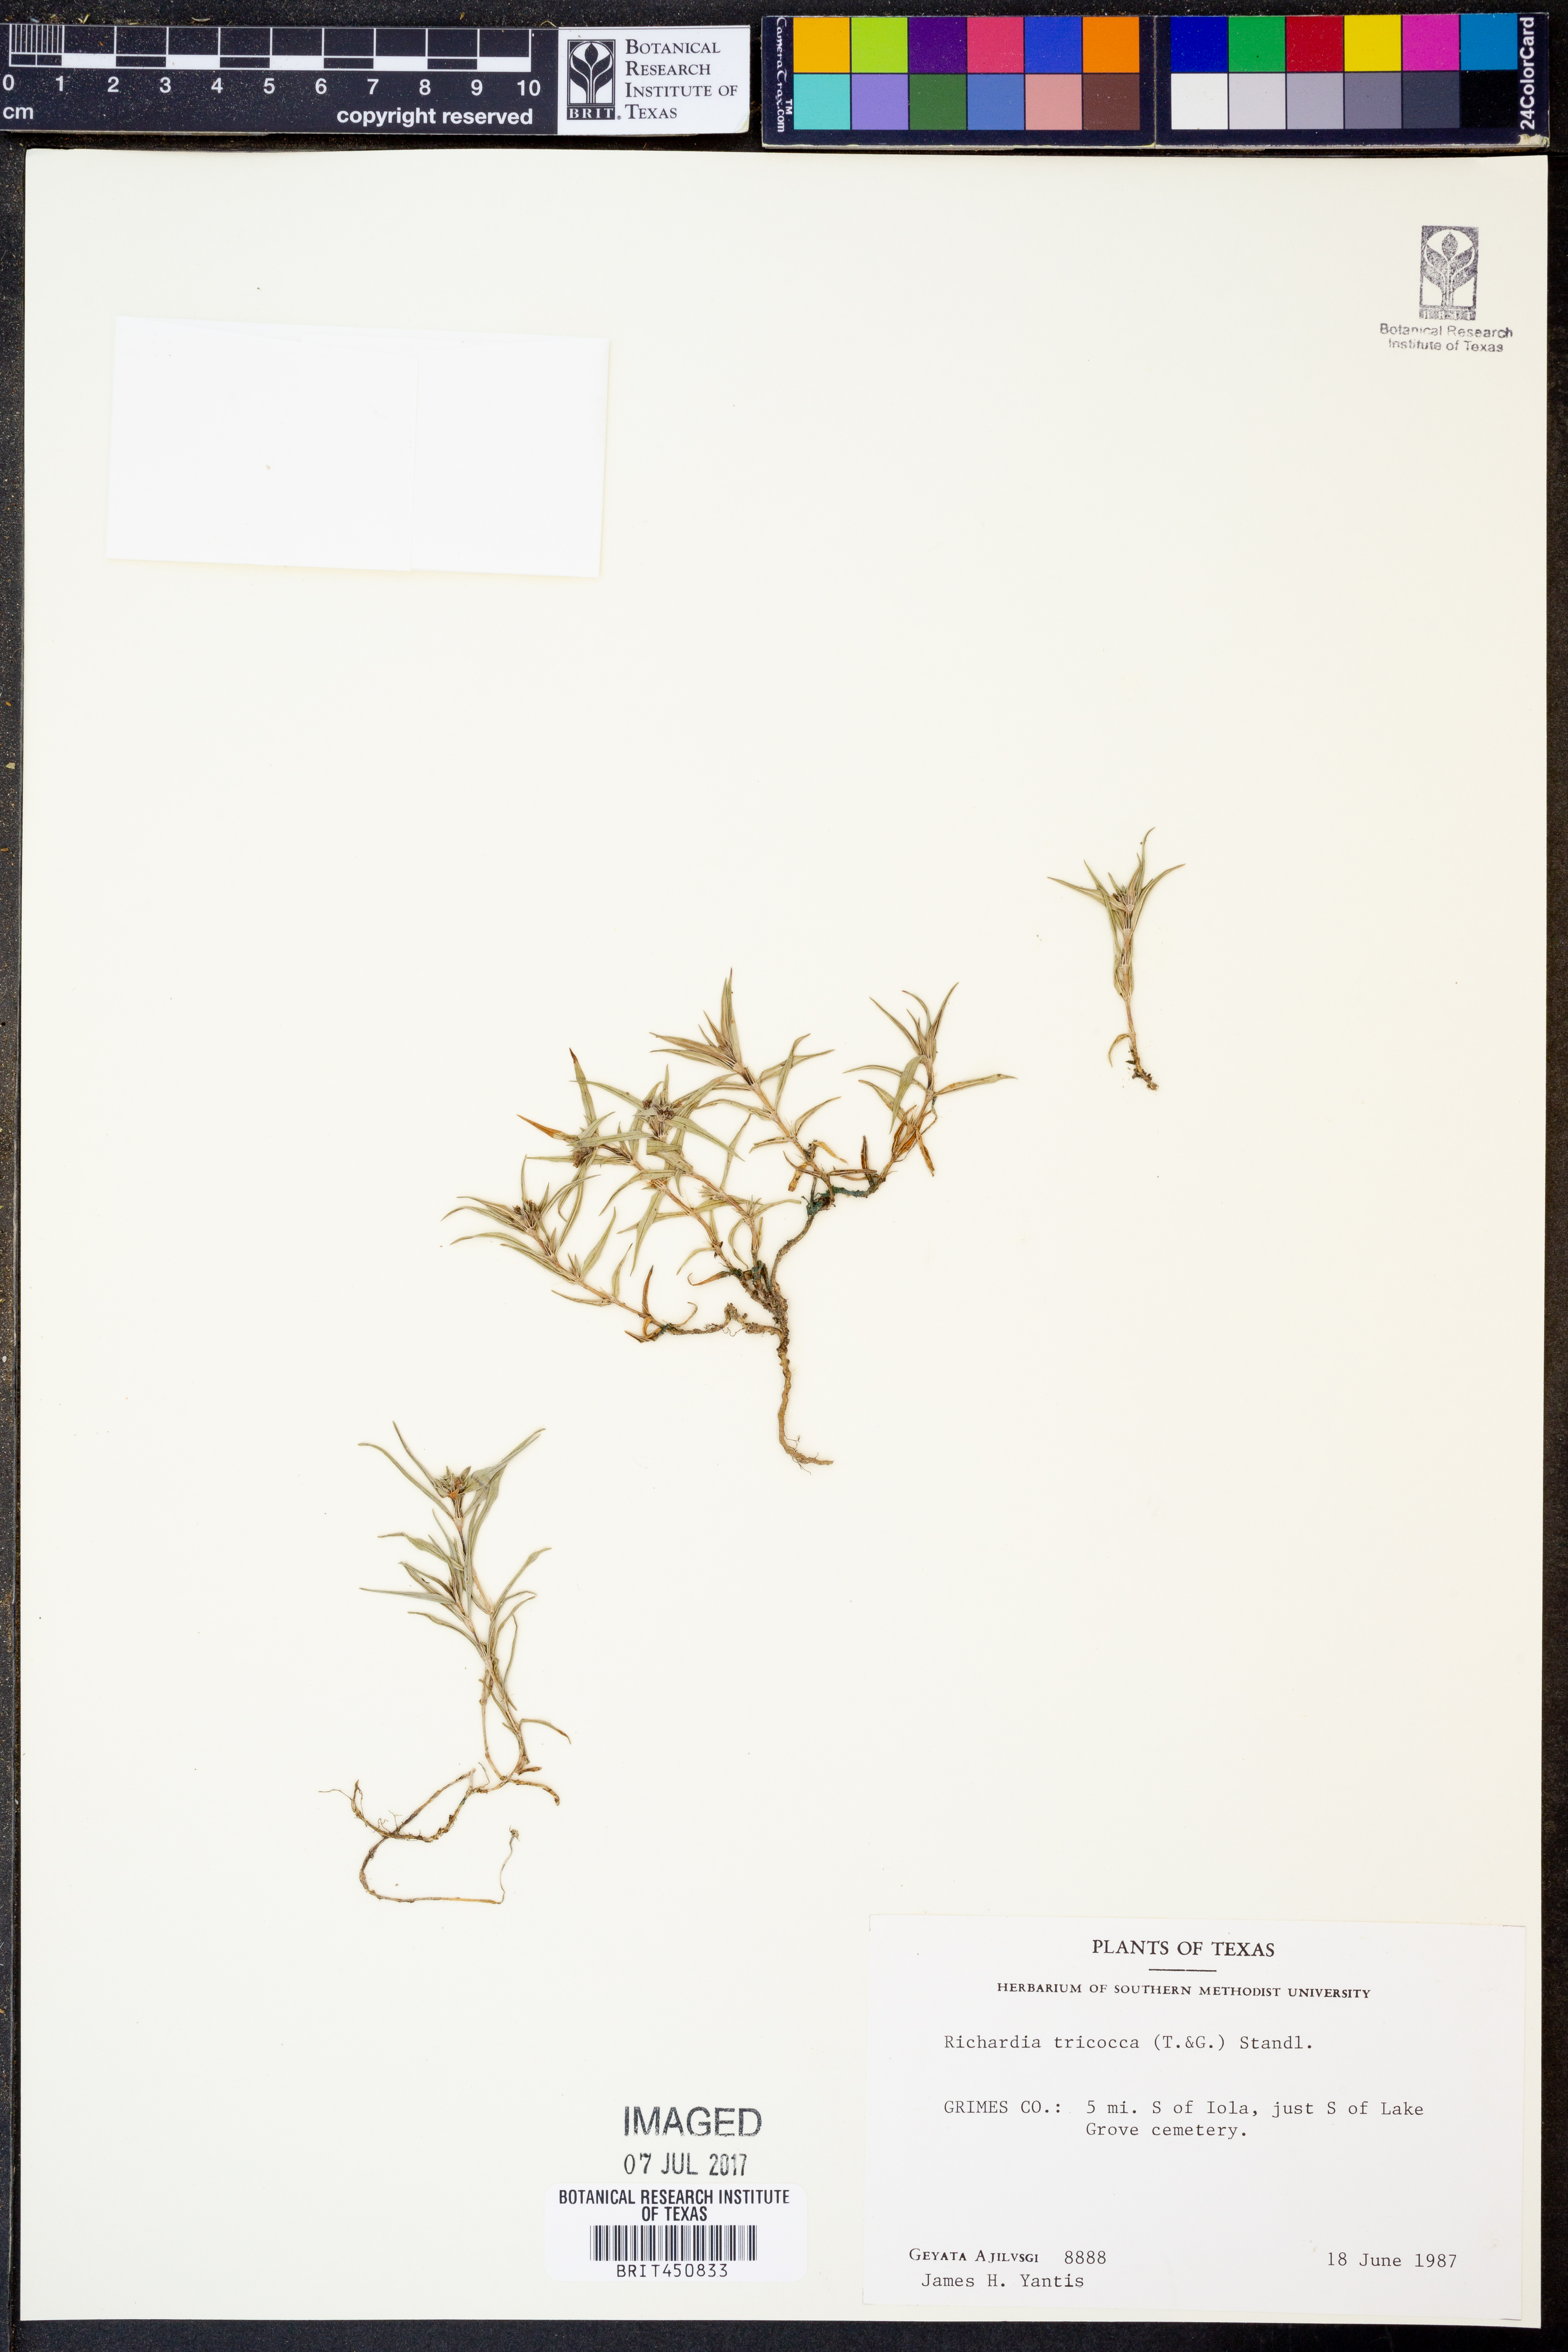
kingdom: Plantae
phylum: Tracheophyta
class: Magnoliopsida
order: Gentianales
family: Rubiaceae
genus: Richardia
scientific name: Richardia tricocca
